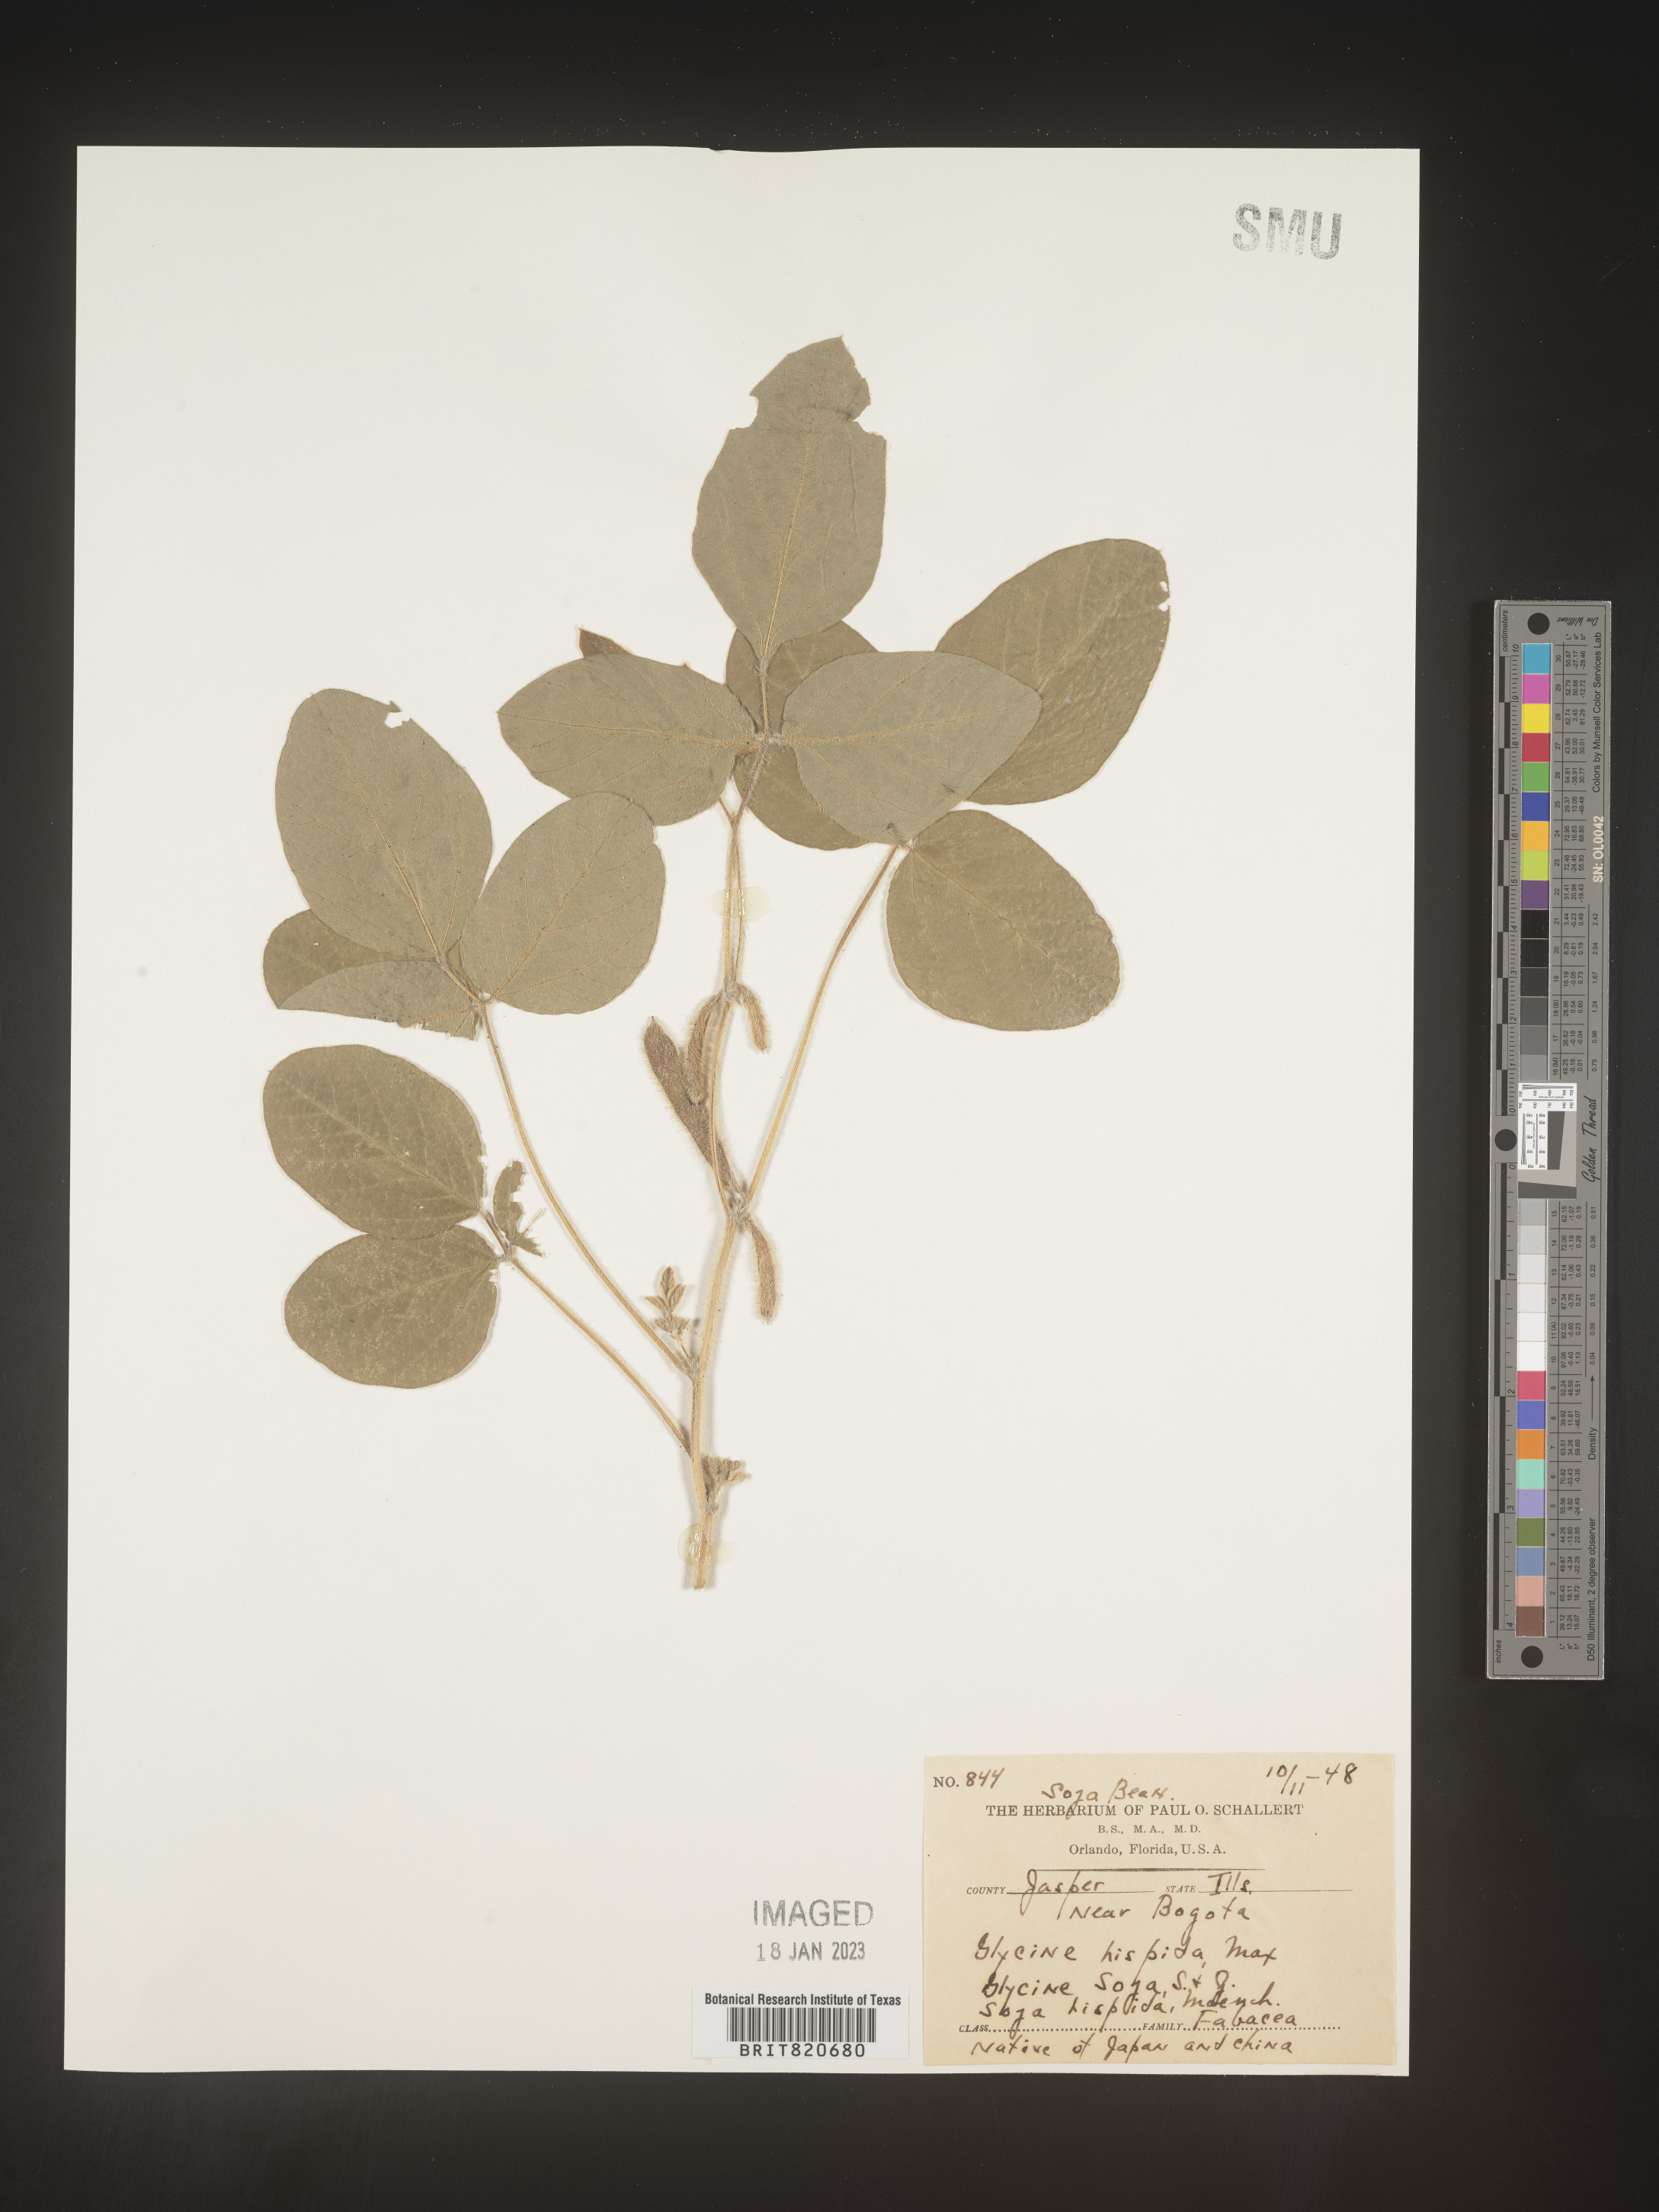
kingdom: Plantae
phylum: Tracheophyta
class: Magnoliopsida
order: Fabales
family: Fabaceae
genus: Glycine
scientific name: Glycine
